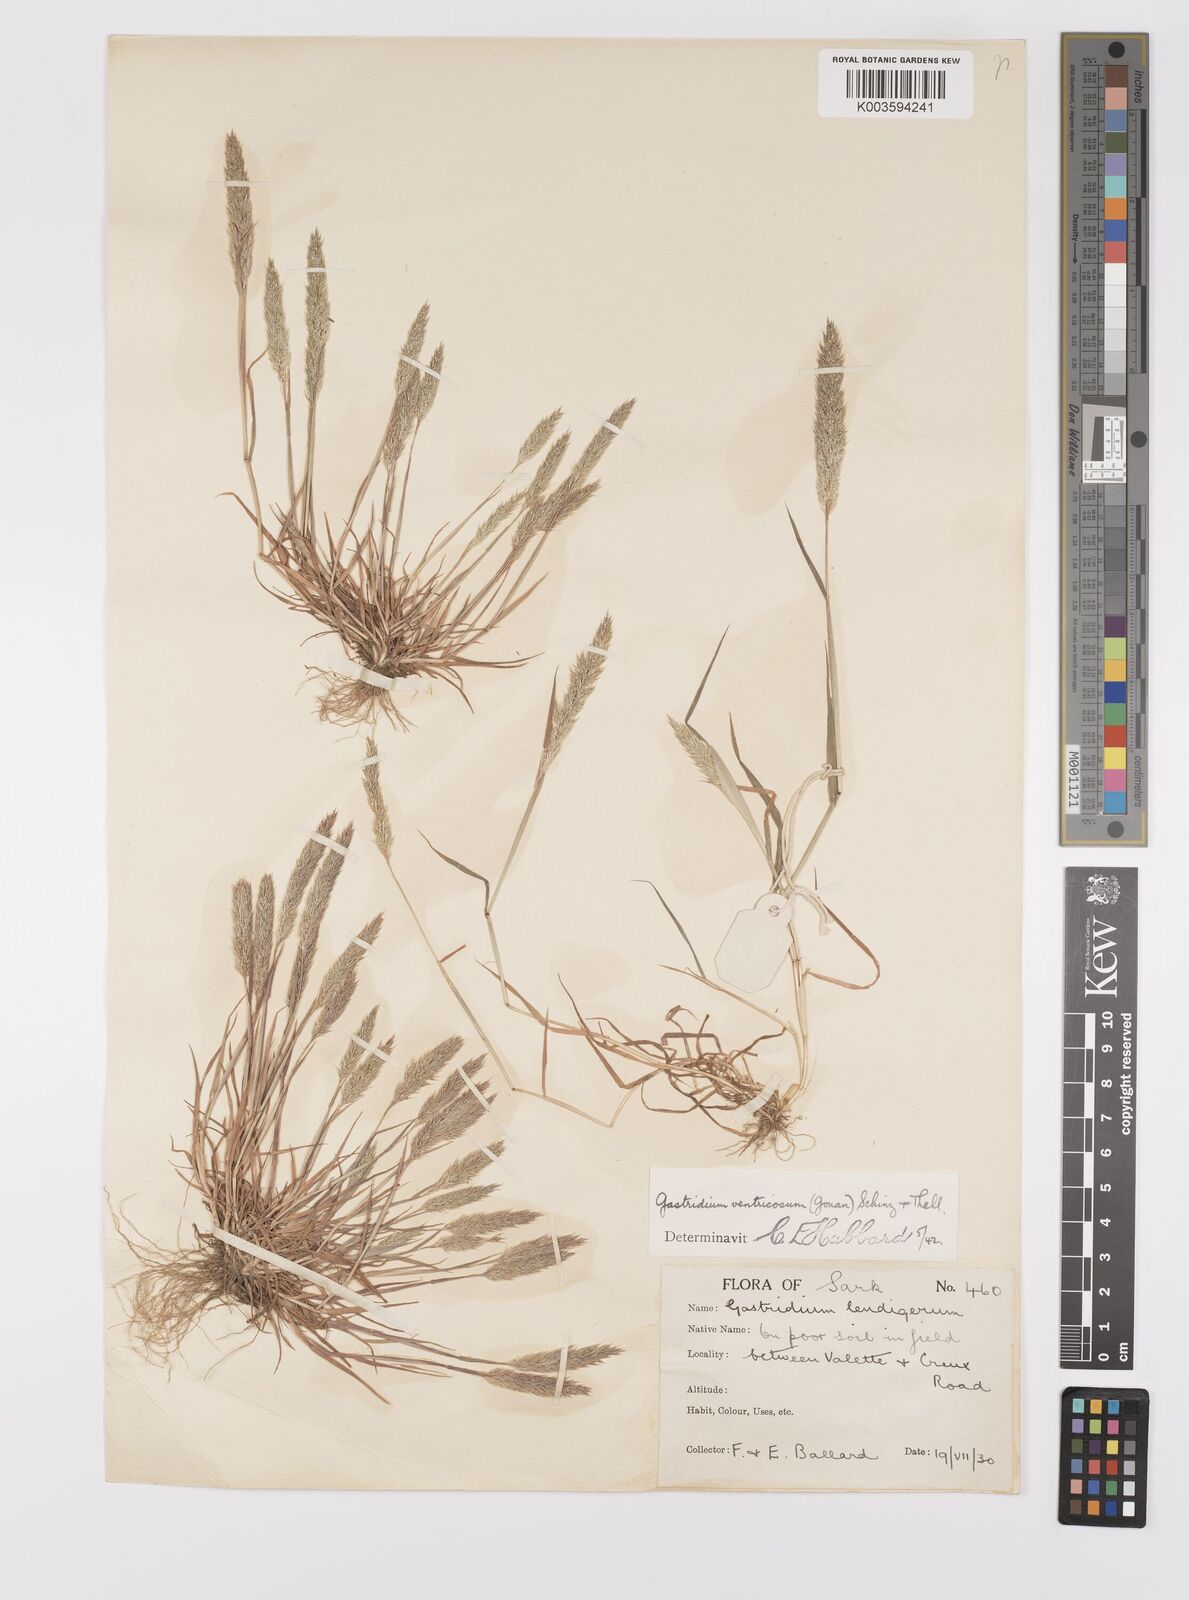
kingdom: Plantae
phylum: Tracheophyta
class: Liliopsida
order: Poales
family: Poaceae
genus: Gastridium
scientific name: Gastridium ventricosum
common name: Nit-grass
